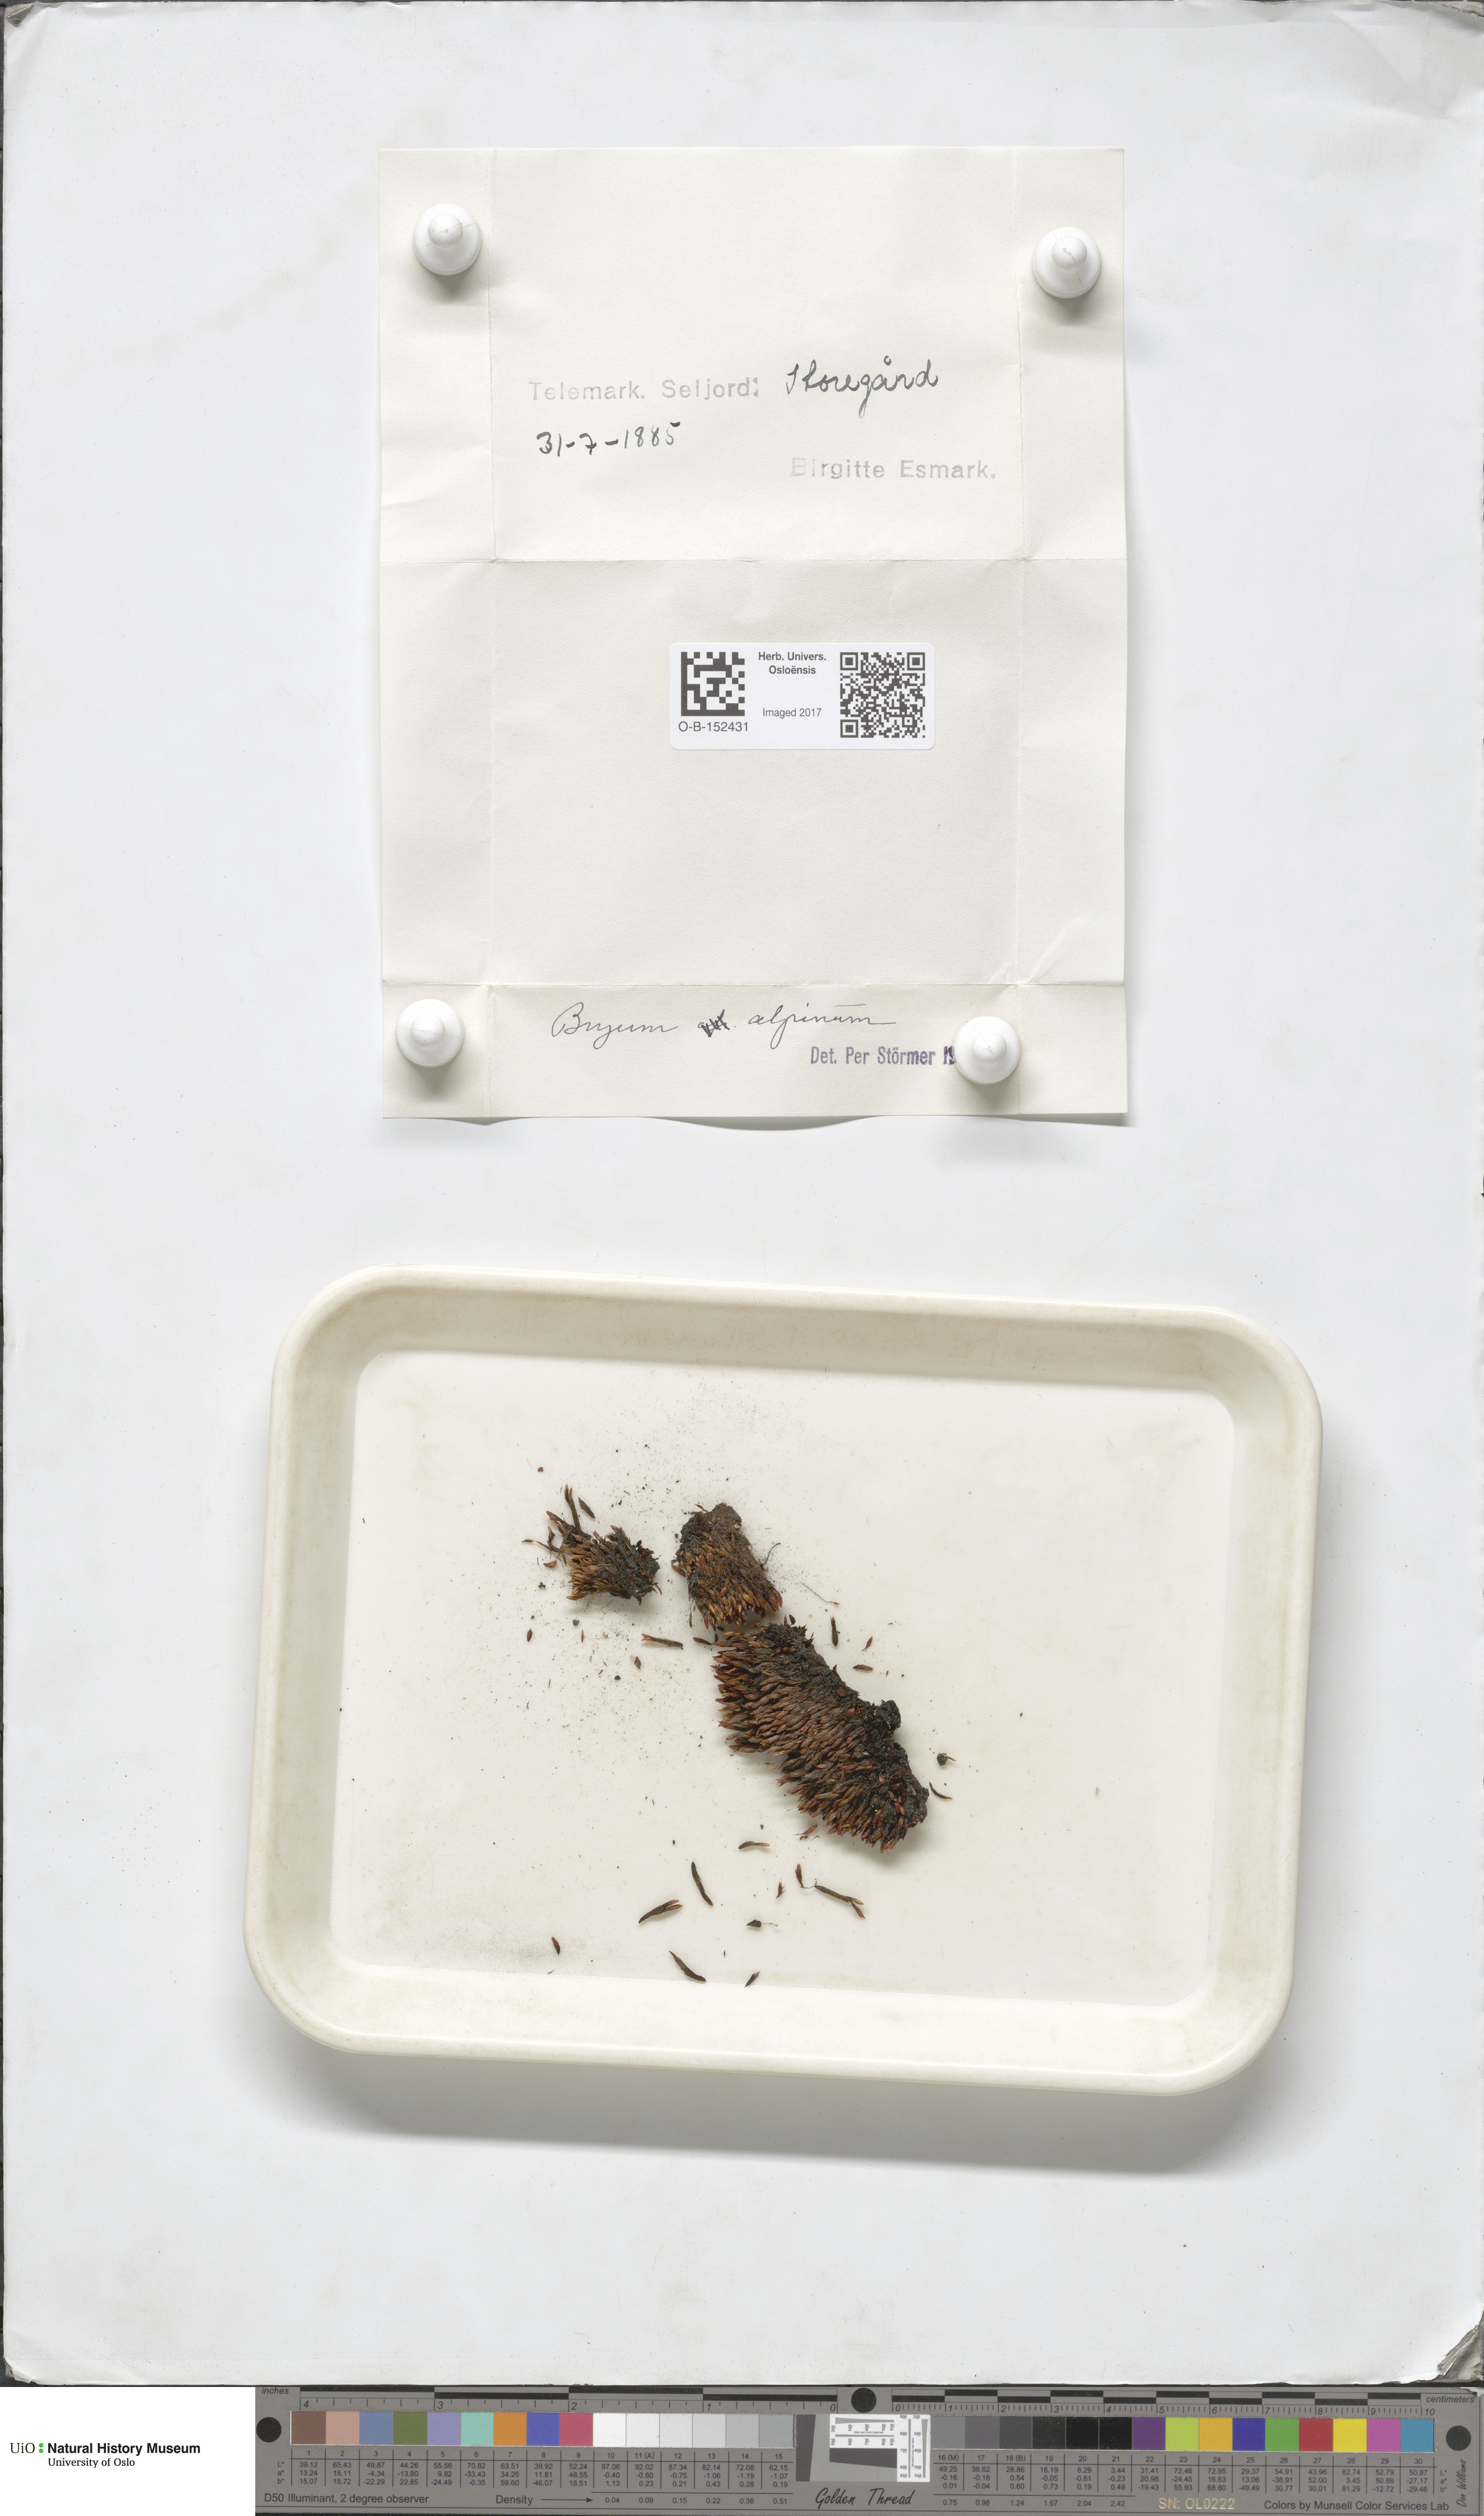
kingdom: Plantae
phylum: Bryophyta
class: Bryopsida
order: Bryales
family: Bryaceae
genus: Imbribryum
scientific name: Imbribryum alpinum
